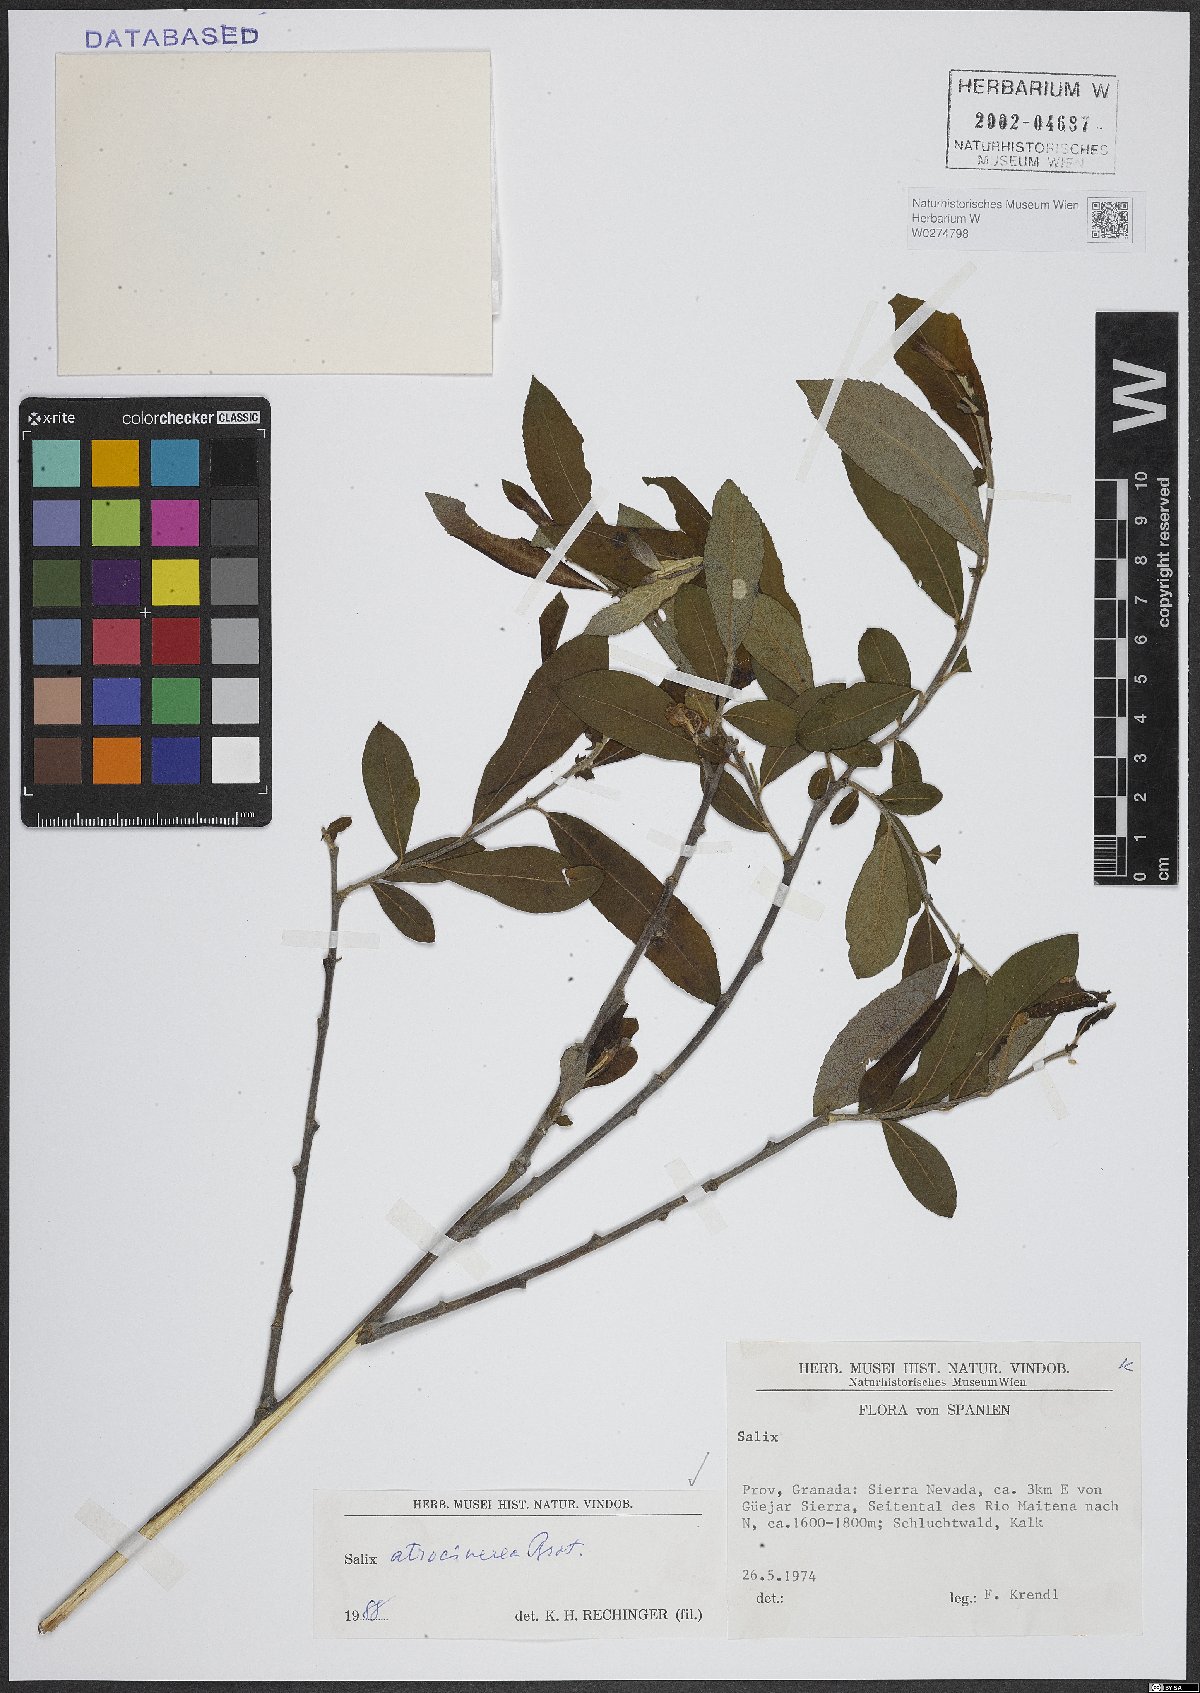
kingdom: Plantae
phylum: Tracheophyta
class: Magnoliopsida
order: Malpighiales
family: Salicaceae
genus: Salix
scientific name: Salix atrocinerea
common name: Rusty willow
